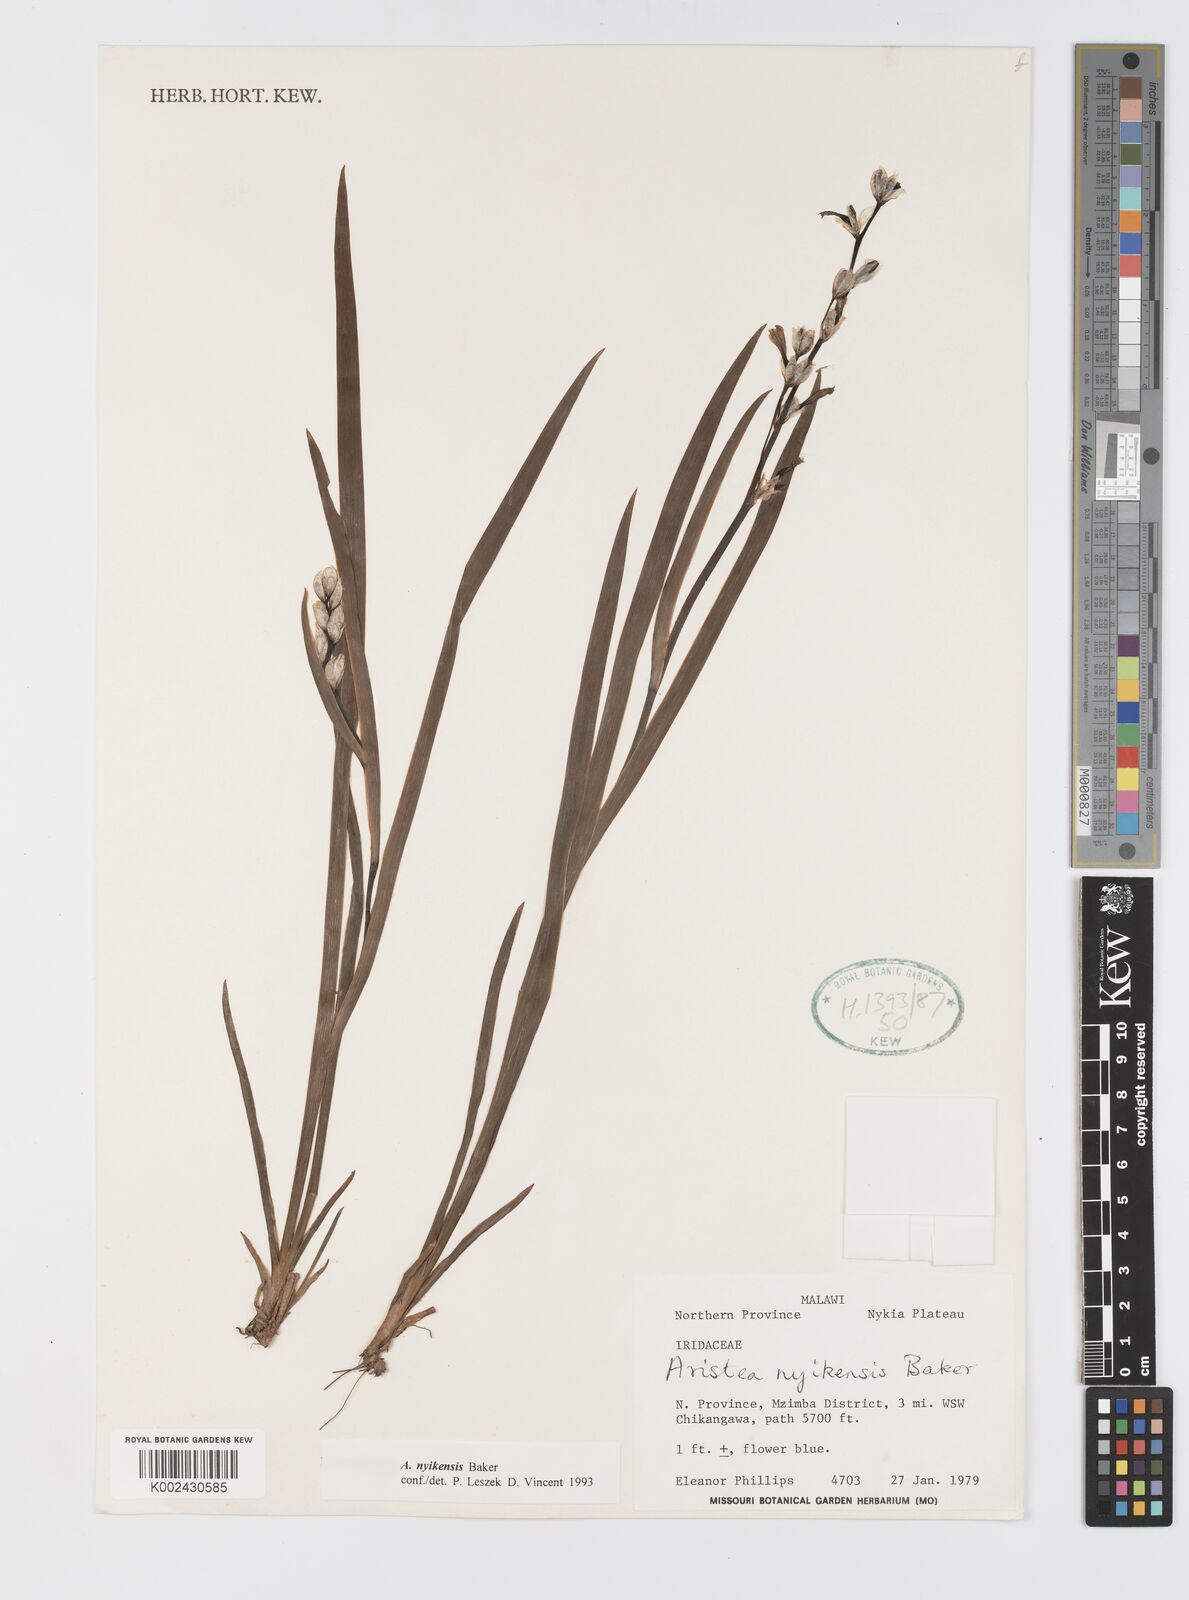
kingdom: Plantae
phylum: Tracheophyta
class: Liliopsida
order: Asparagales
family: Iridaceae
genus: Aristea
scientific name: Aristea nyikensis
